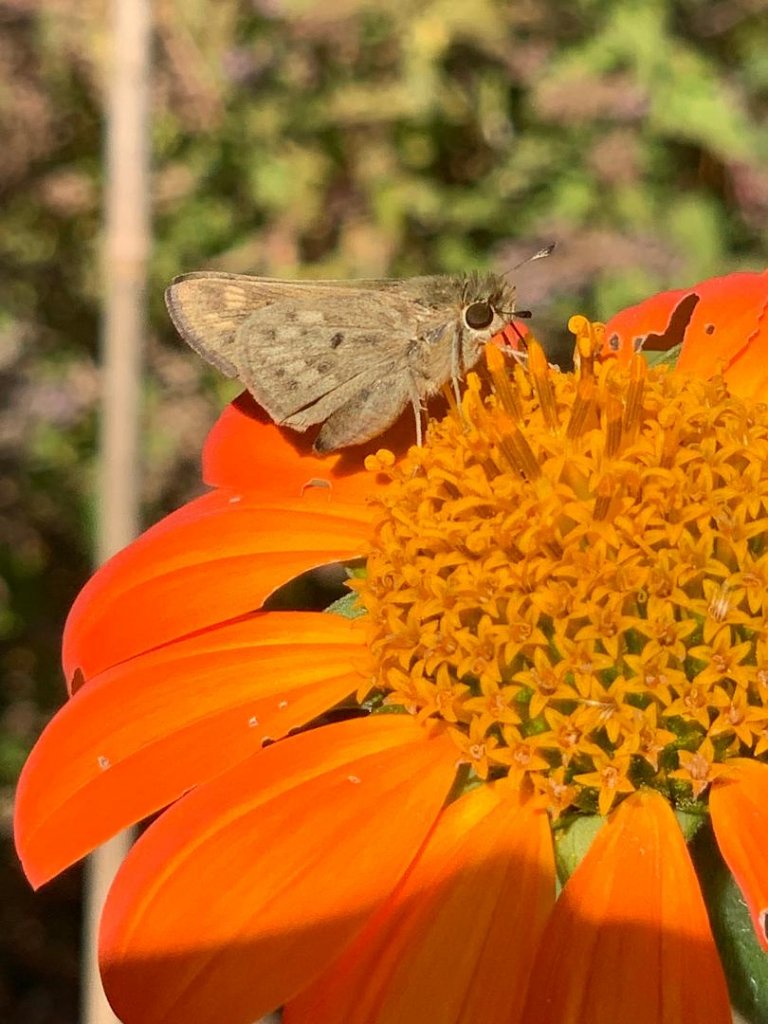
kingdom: Animalia
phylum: Arthropoda
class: Insecta
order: Lepidoptera
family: Hesperiidae
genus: Hylephila
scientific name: Hylephila phyleus
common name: Fiery Skipper
